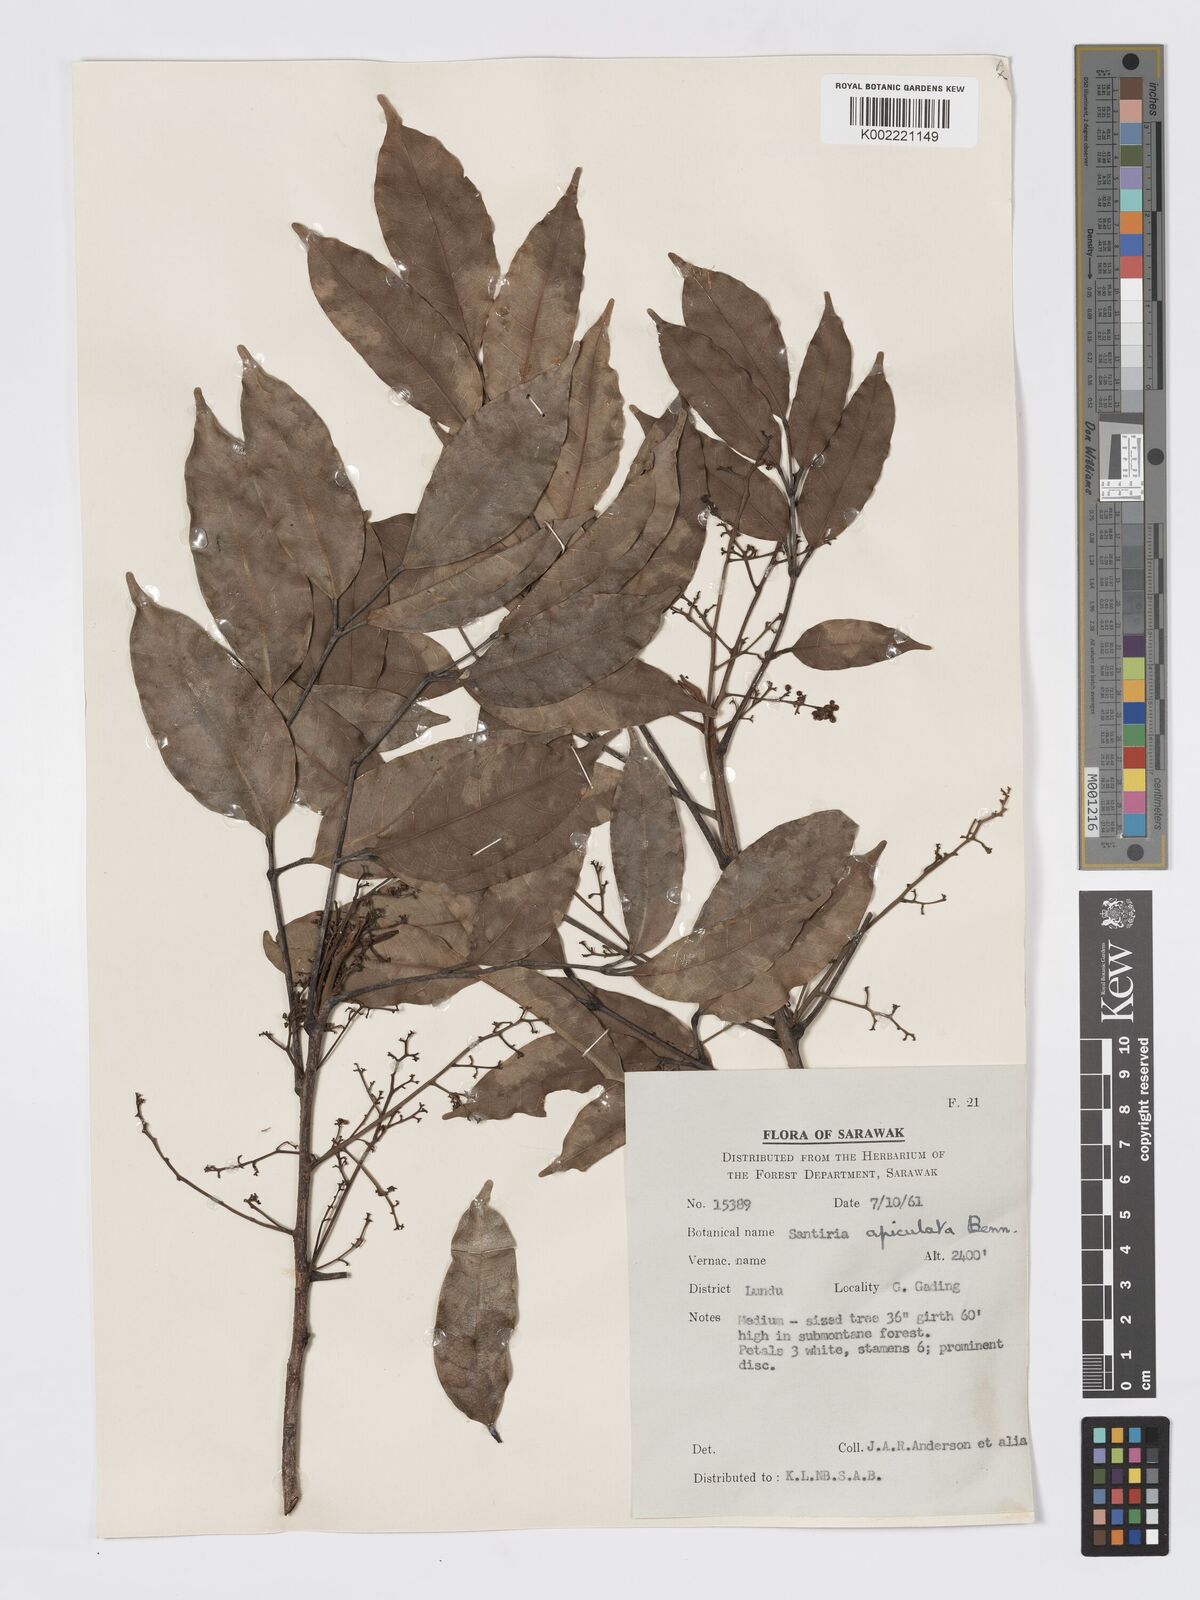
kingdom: Plantae
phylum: Tracheophyta
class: Magnoliopsida
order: Sapindales
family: Burseraceae
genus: Santiria
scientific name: Santiria apiculata
